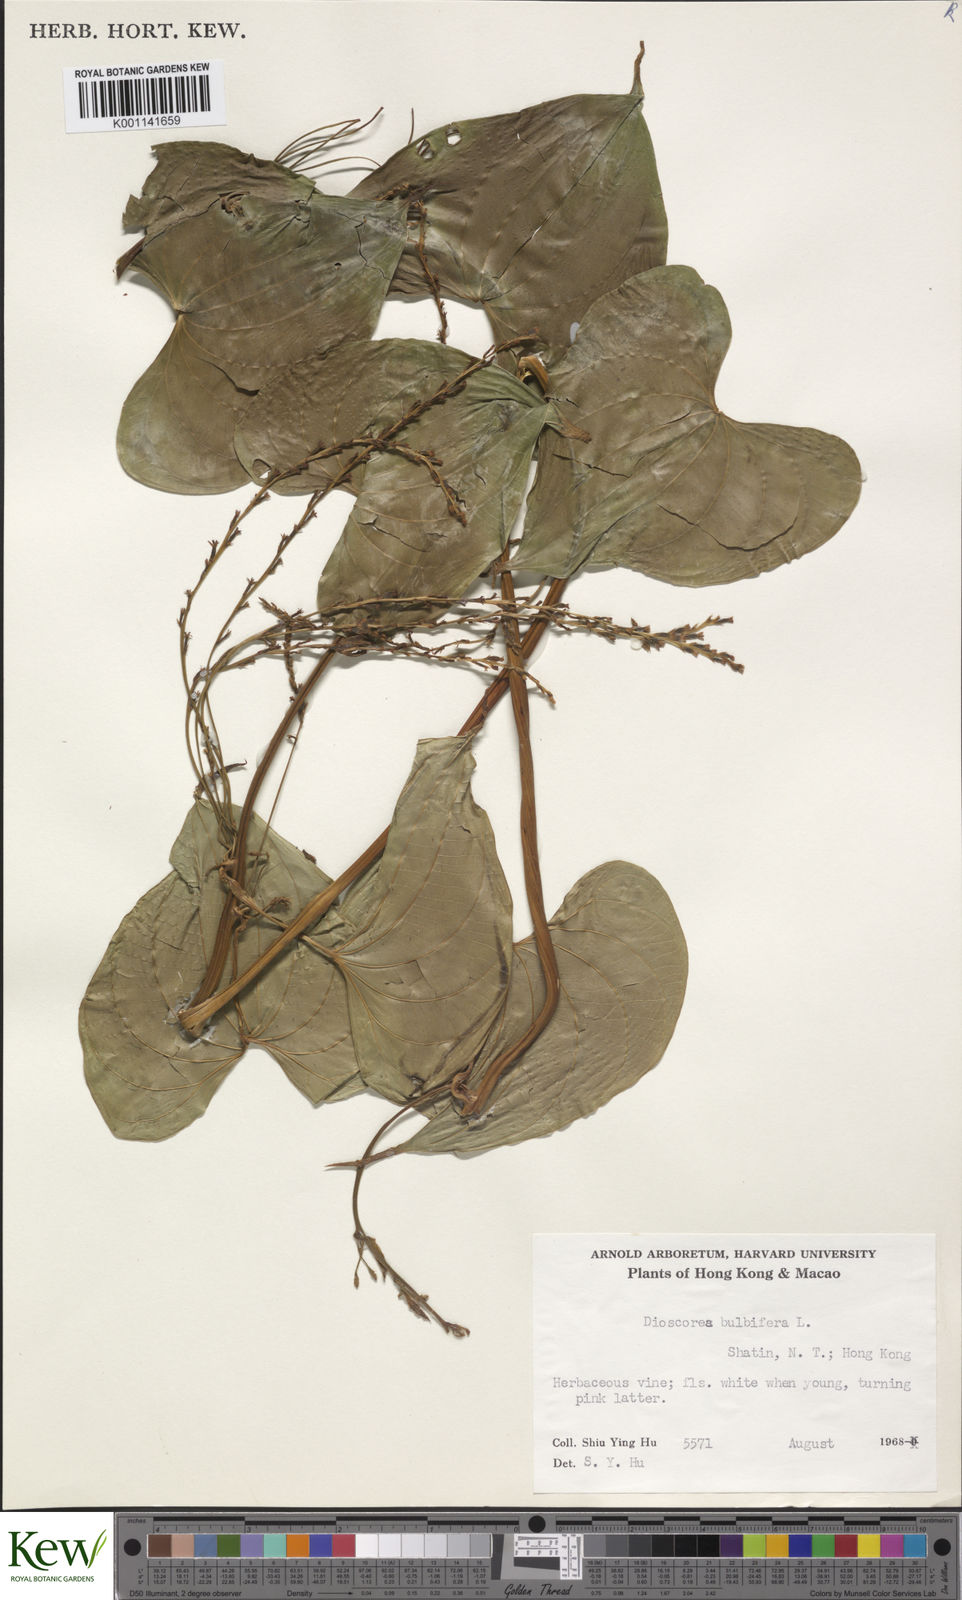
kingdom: Plantae
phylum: Tracheophyta
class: Liliopsida
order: Dioscoreales
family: Dioscoreaceae
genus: Dioscorea
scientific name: Dioscorea bulbifera
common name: Air yam
